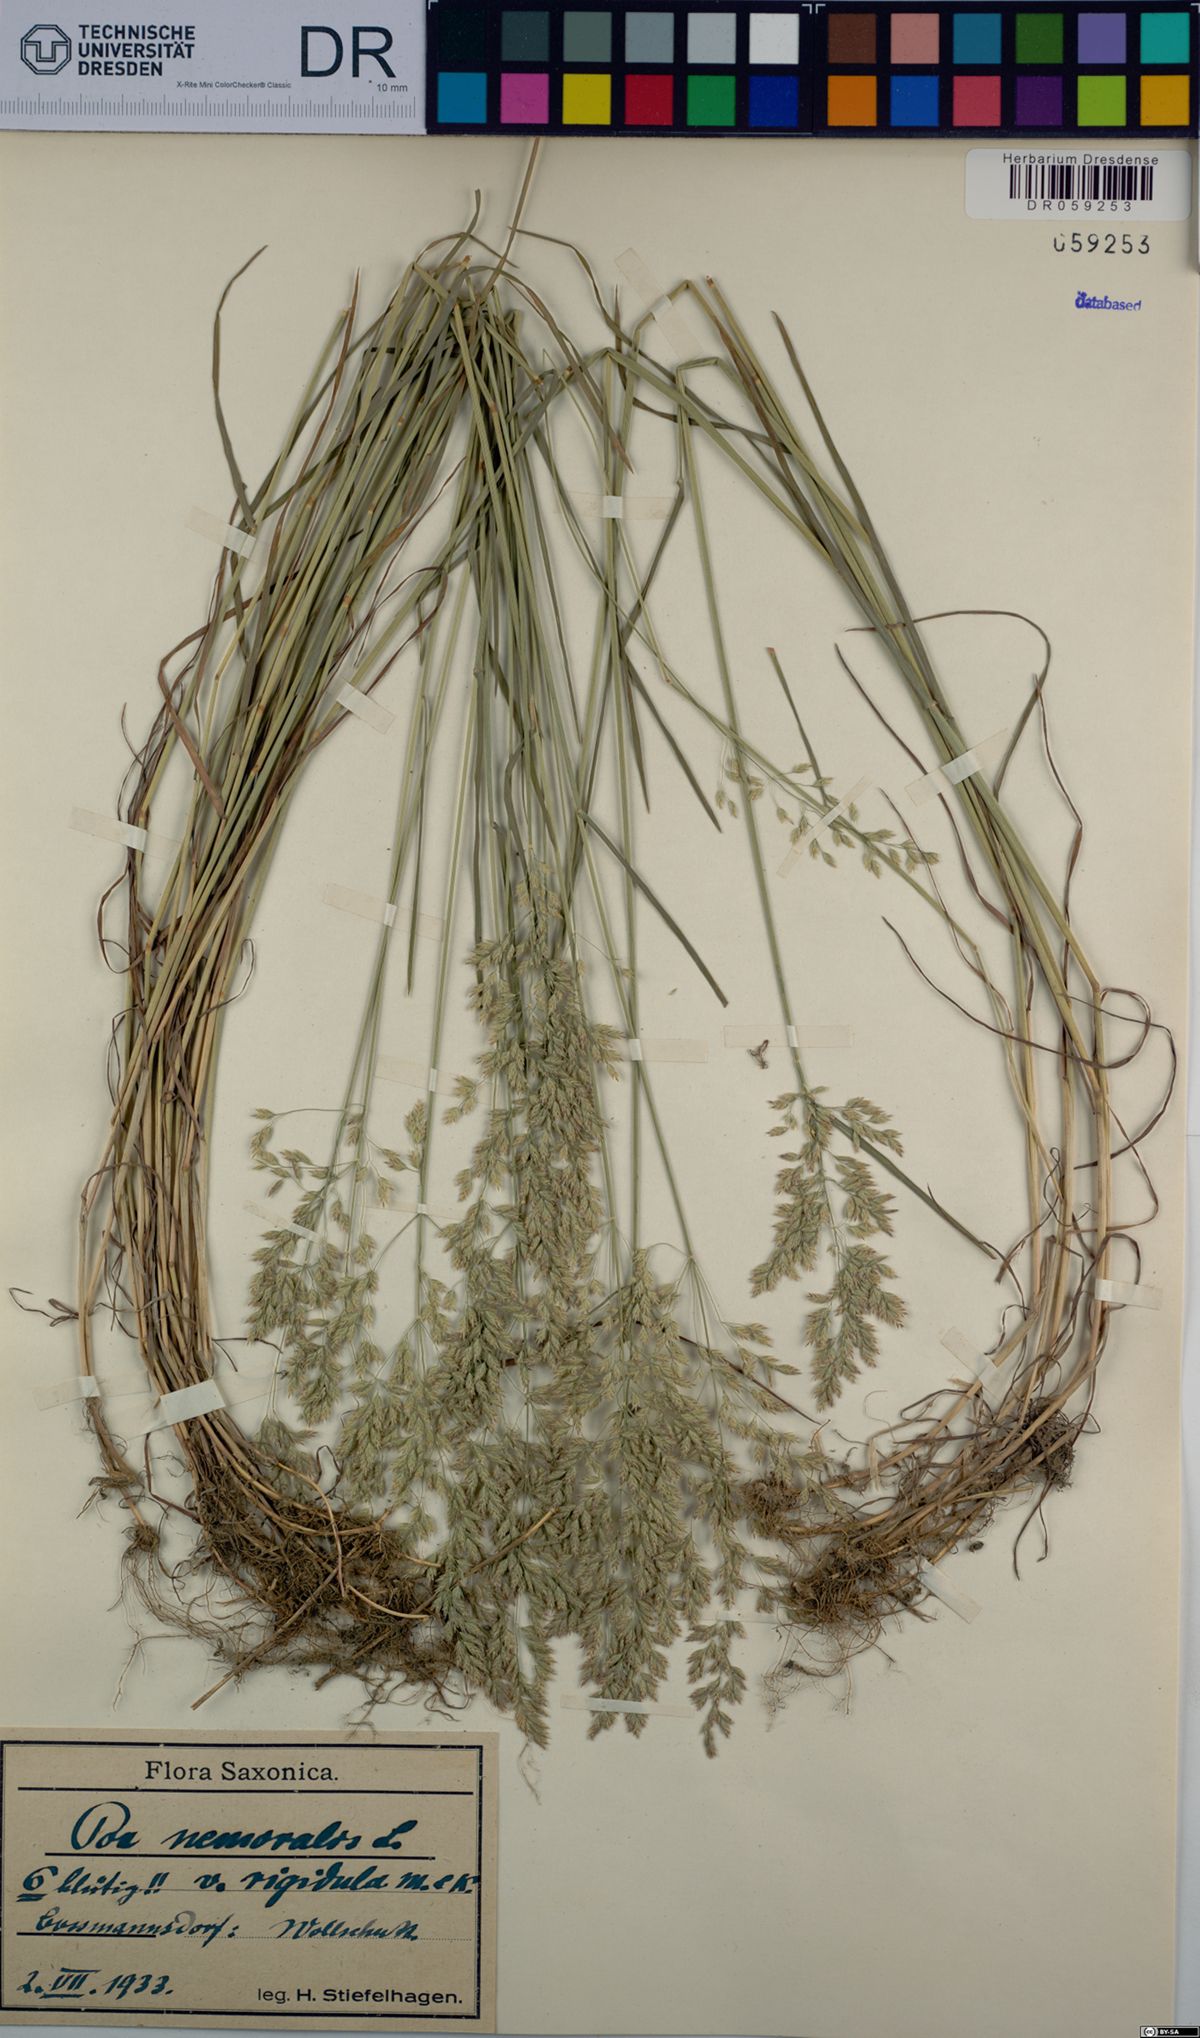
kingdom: Plantae
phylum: Tracheophyta
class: Liliopsida
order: Poales
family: Poaceae
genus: Poa
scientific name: Poa nemoralis
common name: Wood bluegrass
